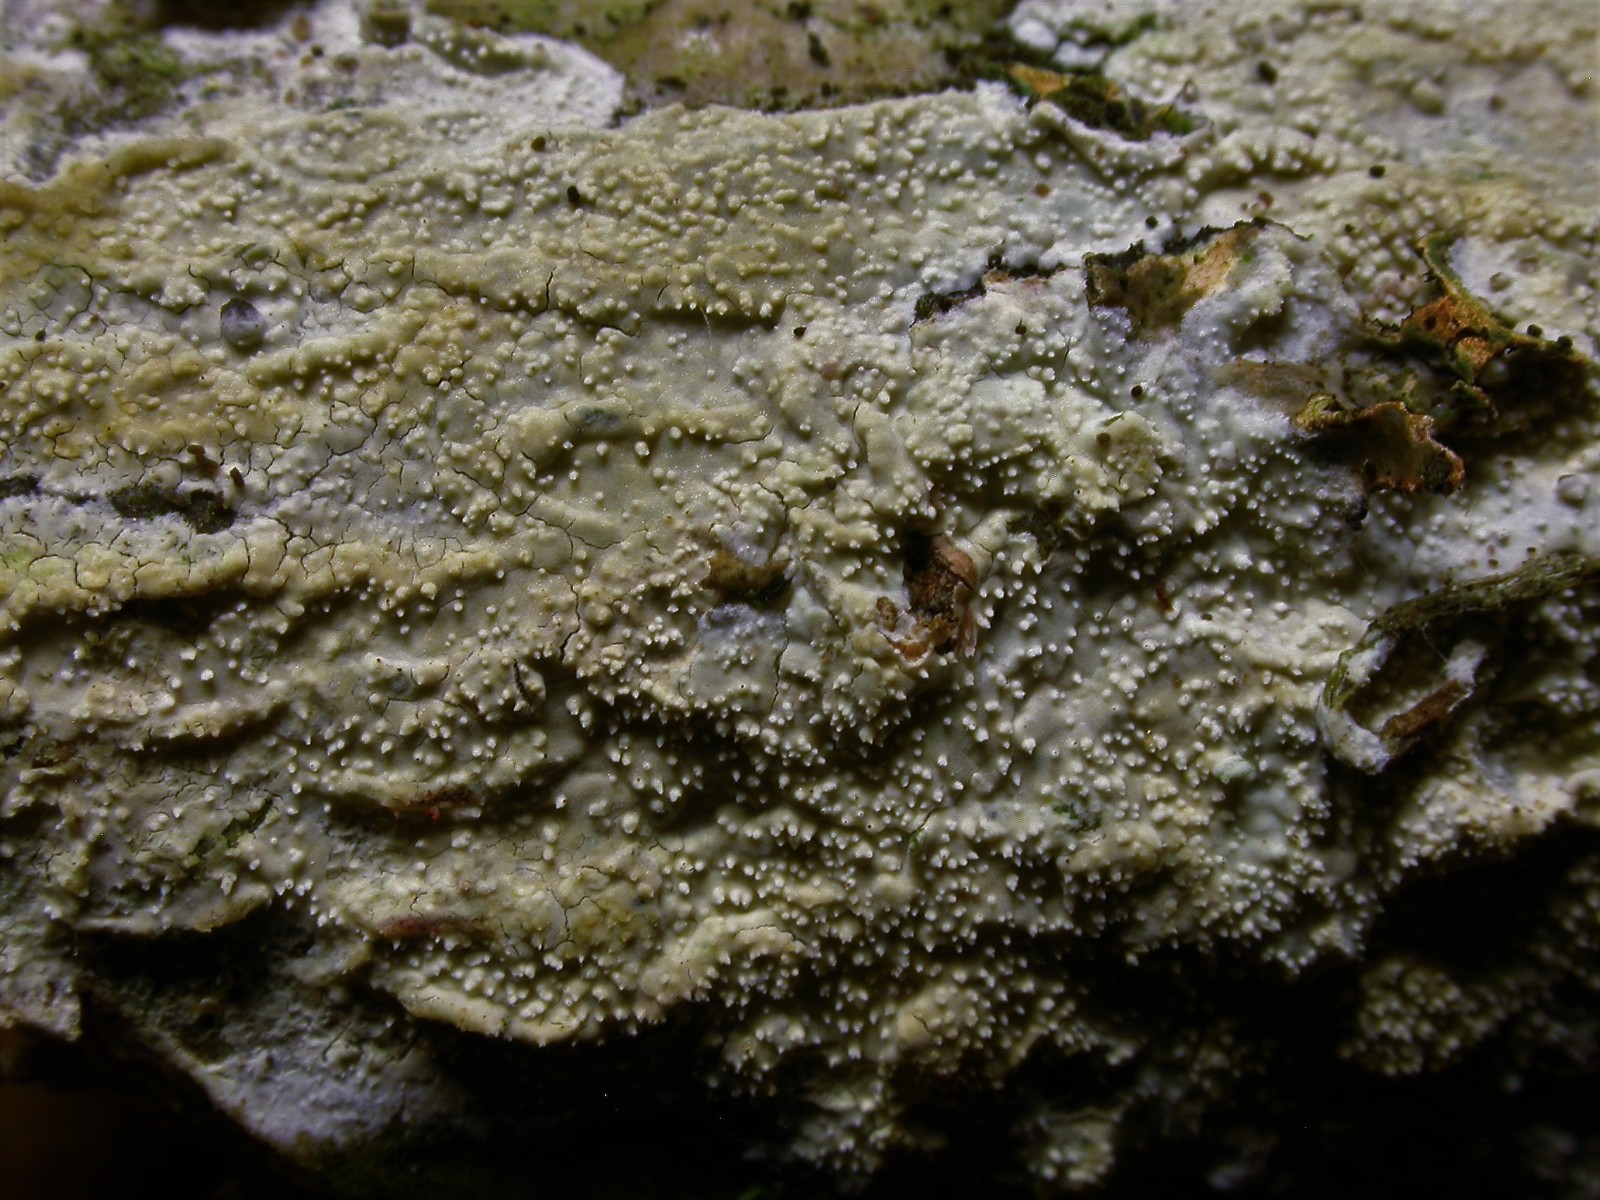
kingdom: Fungi
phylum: Basidiomycota
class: Agaricomycetes
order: Corticiales
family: Corticiaceae
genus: Lyomyces
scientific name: Lyomyces crustosus
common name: vortet hyldehinde
